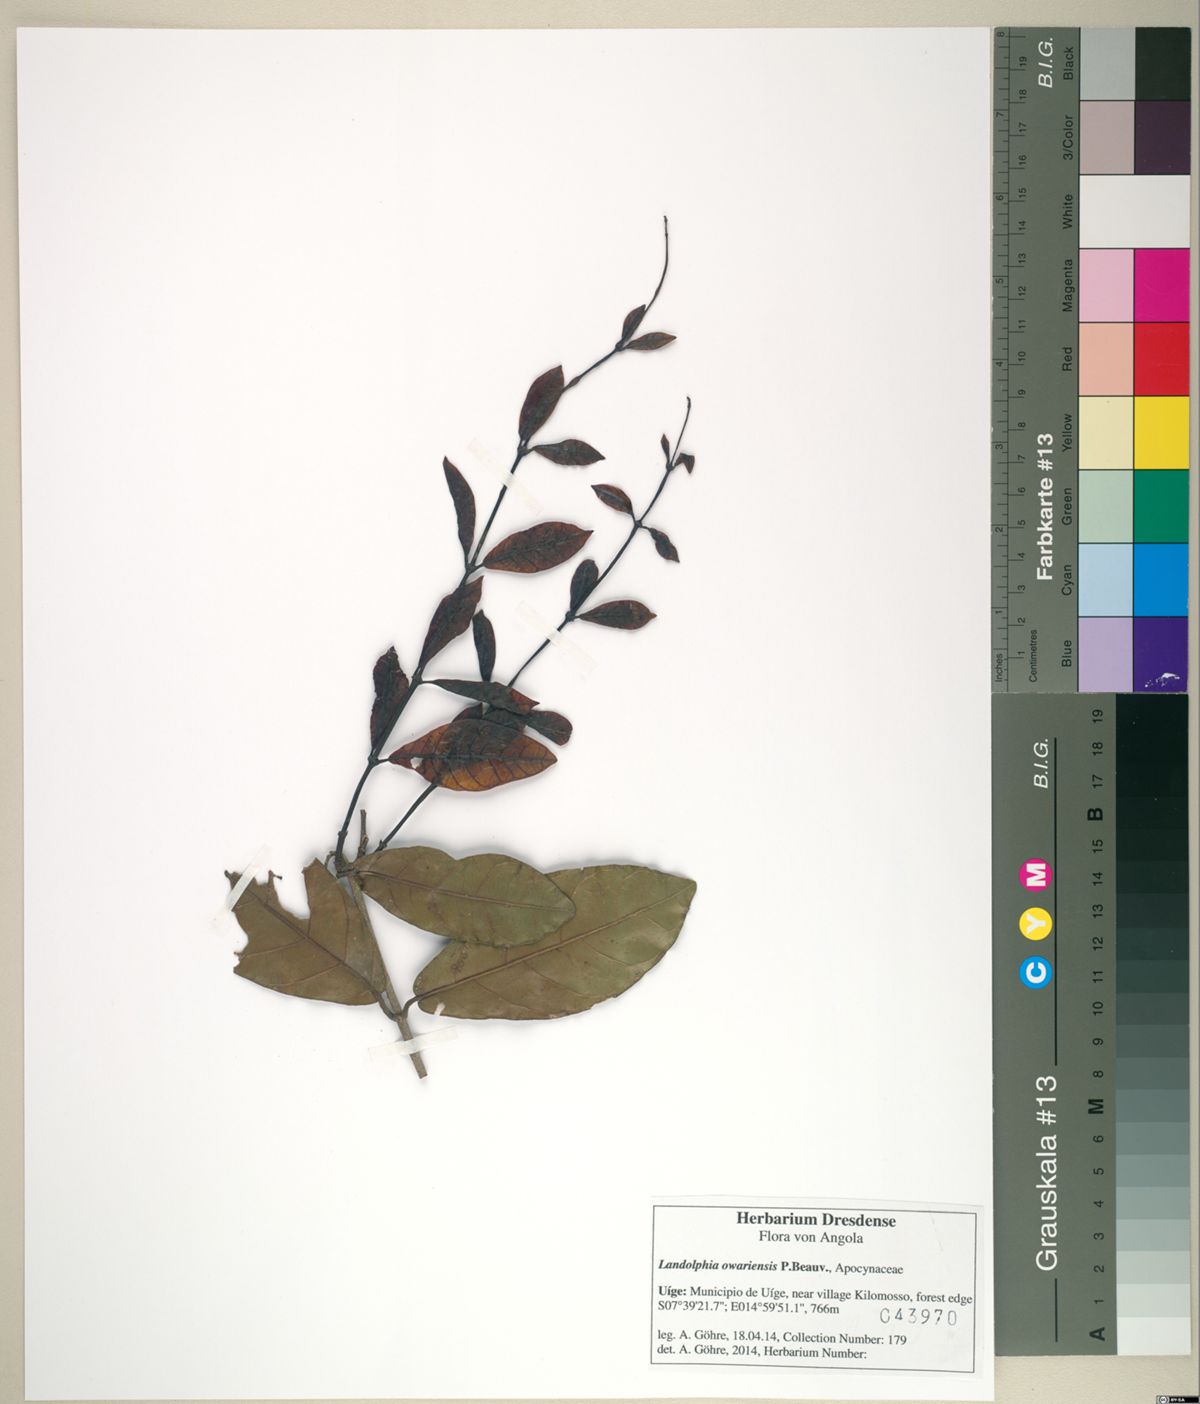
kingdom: Plantae
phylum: Tracheophyta
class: Magnoliopsida
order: Gentianales
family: Apocynaceae
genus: Landolphia
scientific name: Landolphia owariensis
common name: White-ball-rubber
